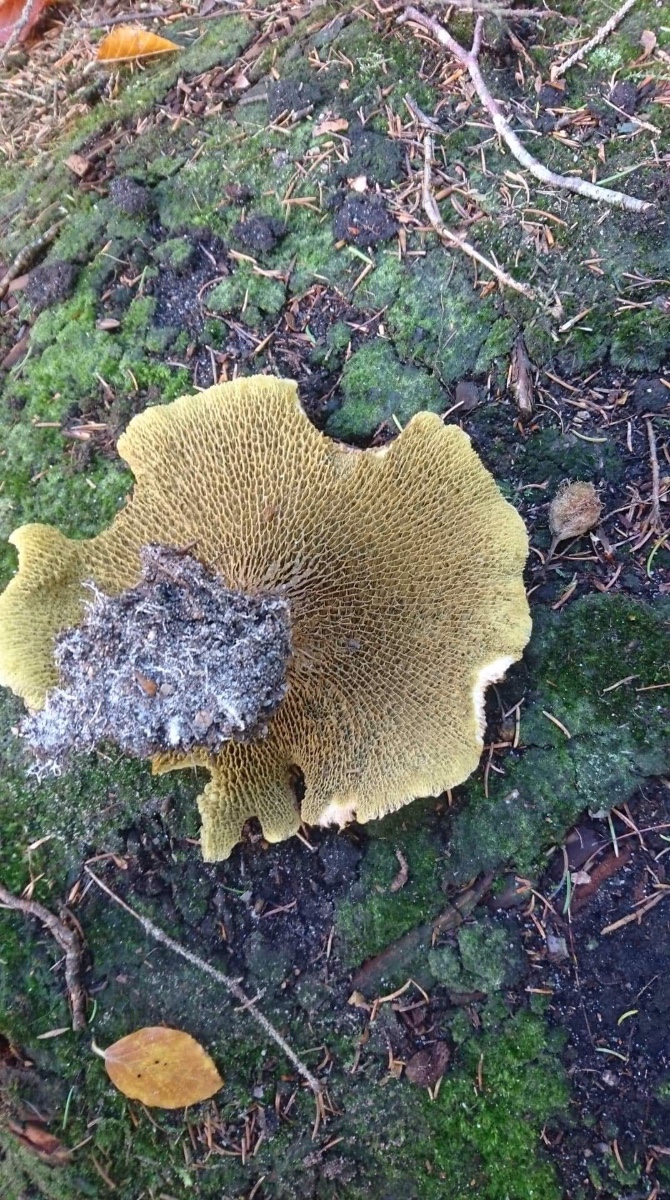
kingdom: Fungi
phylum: Basidiomycota
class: Agaricomycetes
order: Boletales
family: Suillaceae
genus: Suillus
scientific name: Suillus cavipes
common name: hulstokket slimrørhat
